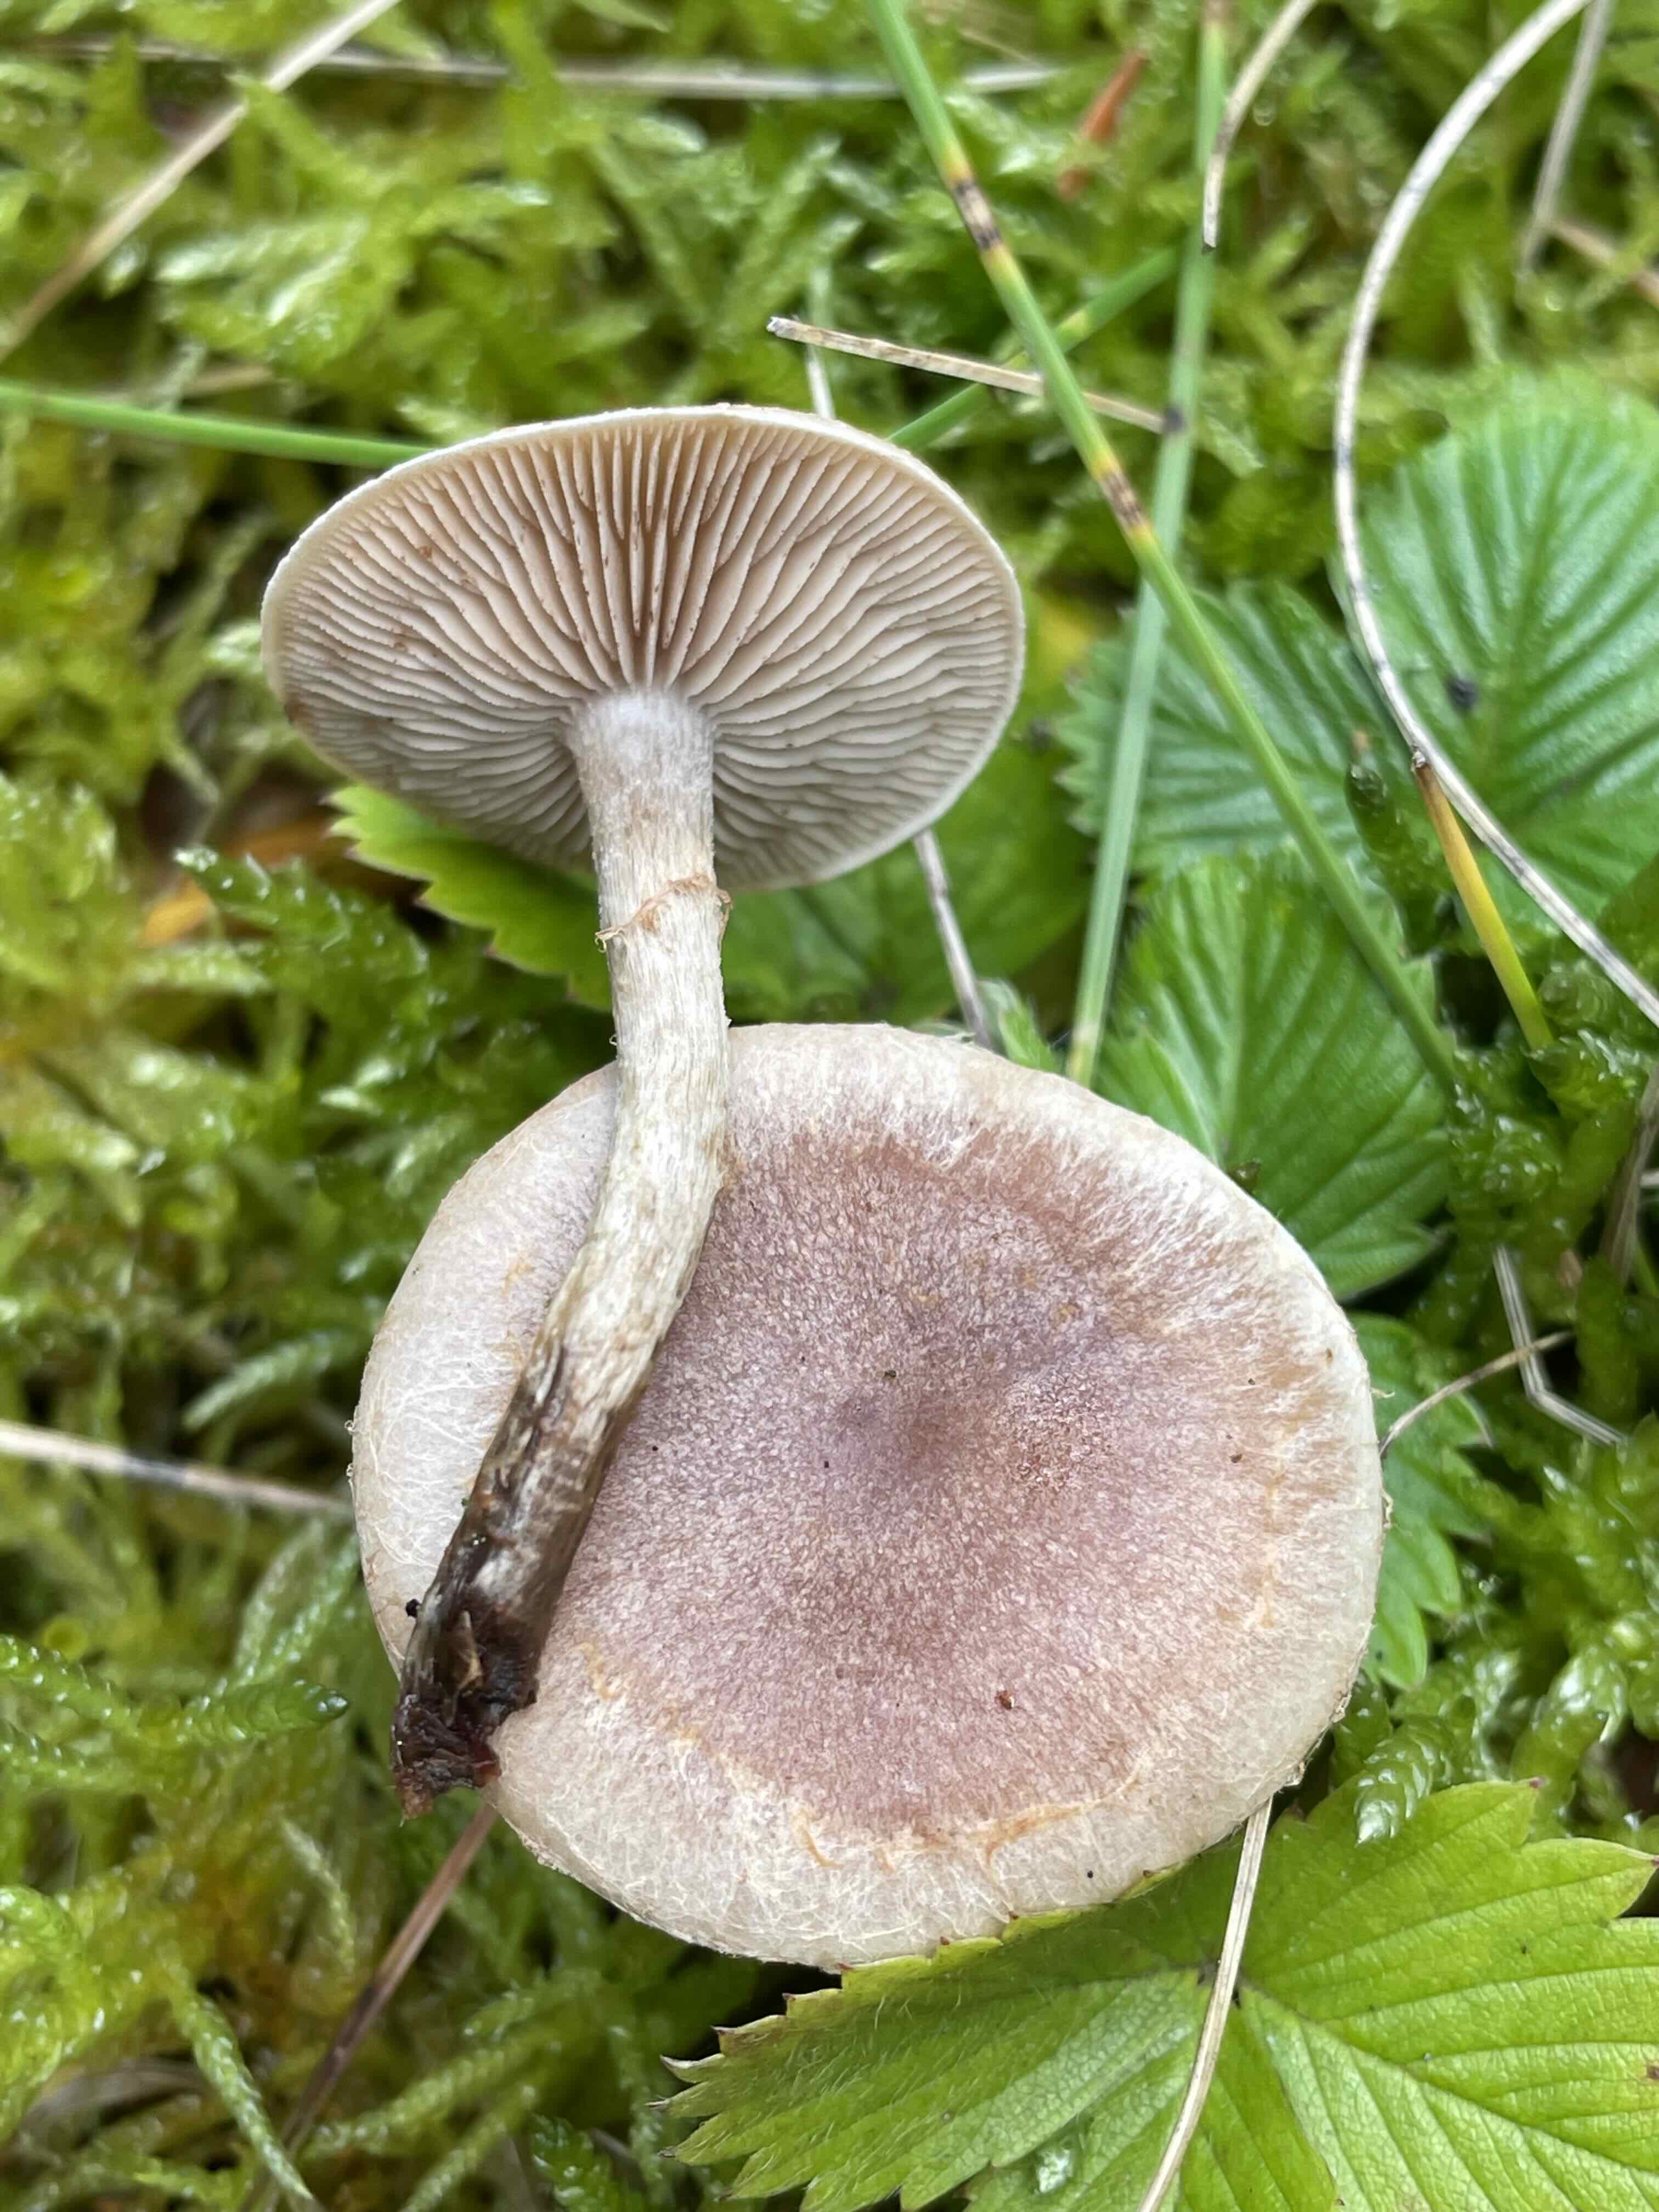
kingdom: Fungi
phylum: Basidiomycota
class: Agaricomycetes
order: Agaricales
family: Hymenogastraceae
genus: Hebeloma
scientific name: Hebeloma
